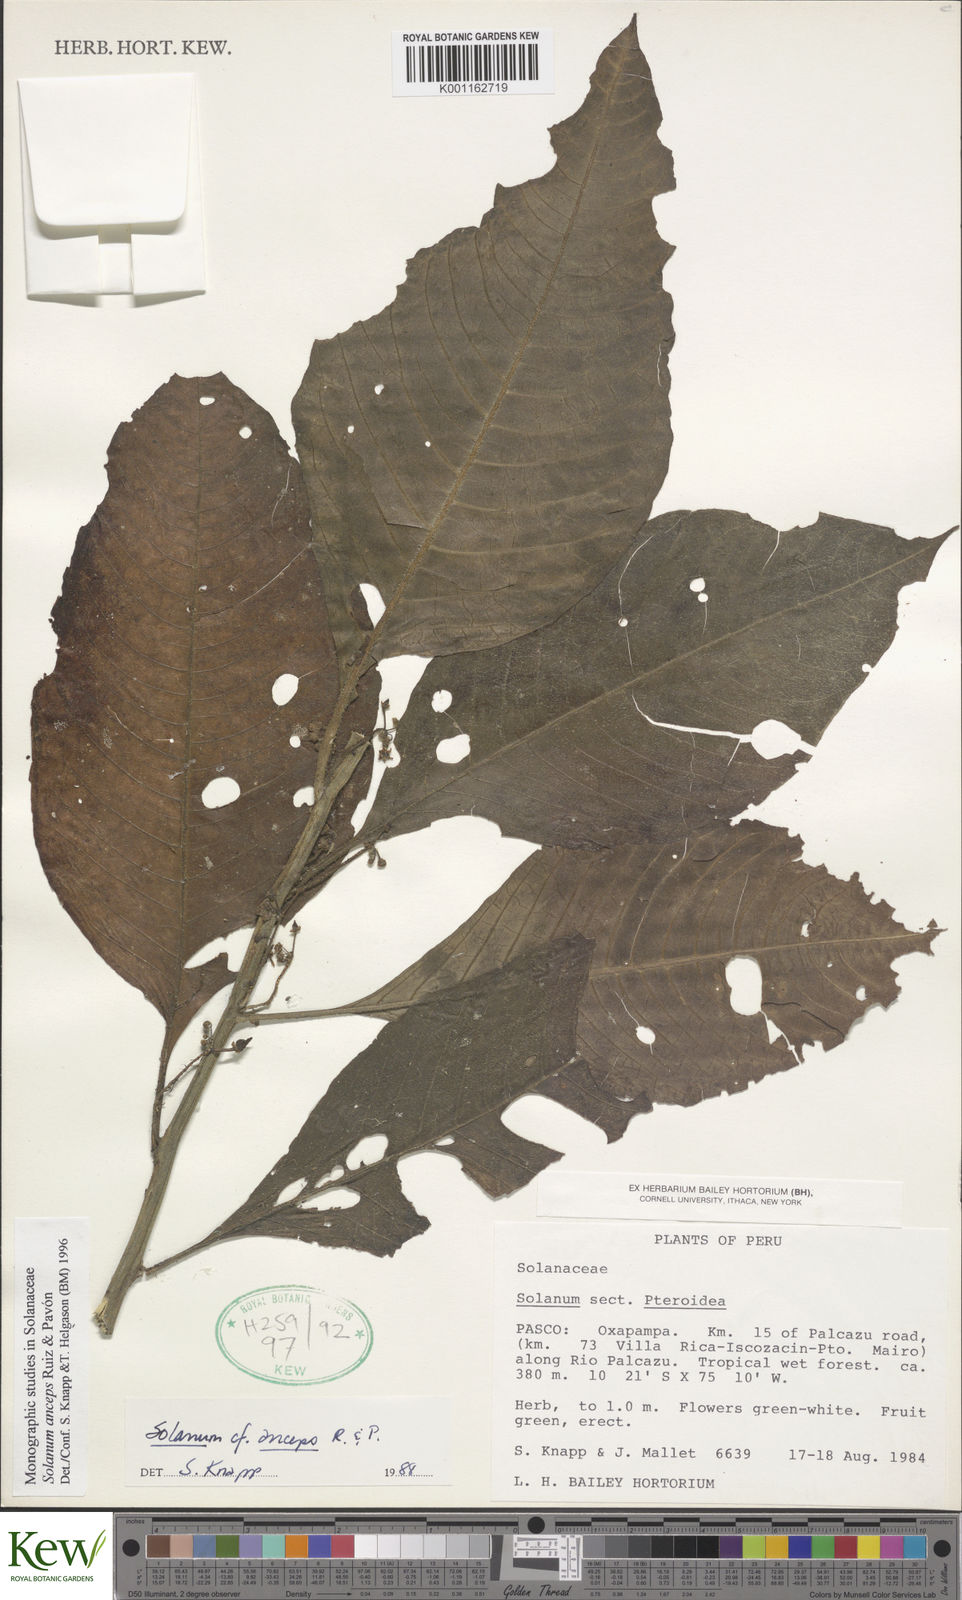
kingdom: Plantae
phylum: Tracheophyta
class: Magnoliopsida
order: Solanales
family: Solanaceae
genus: Solanum
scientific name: Solanum anceps
